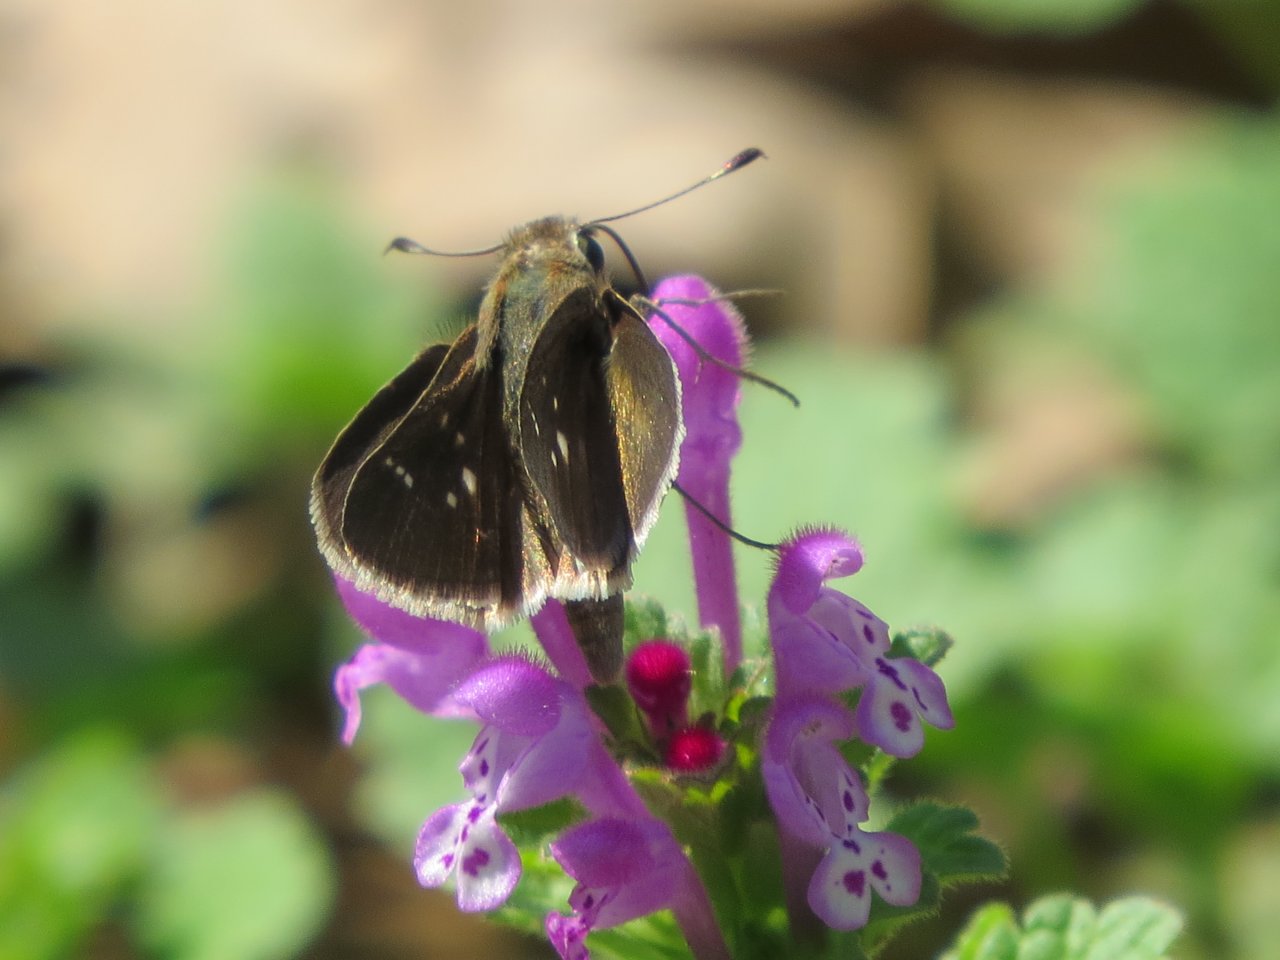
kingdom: Animalia
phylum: Arthropoda
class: Insecta
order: Lepidoptera
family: Hesperiidae
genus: Lerodea
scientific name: Lerodea eufala
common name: Eufala Skipper
